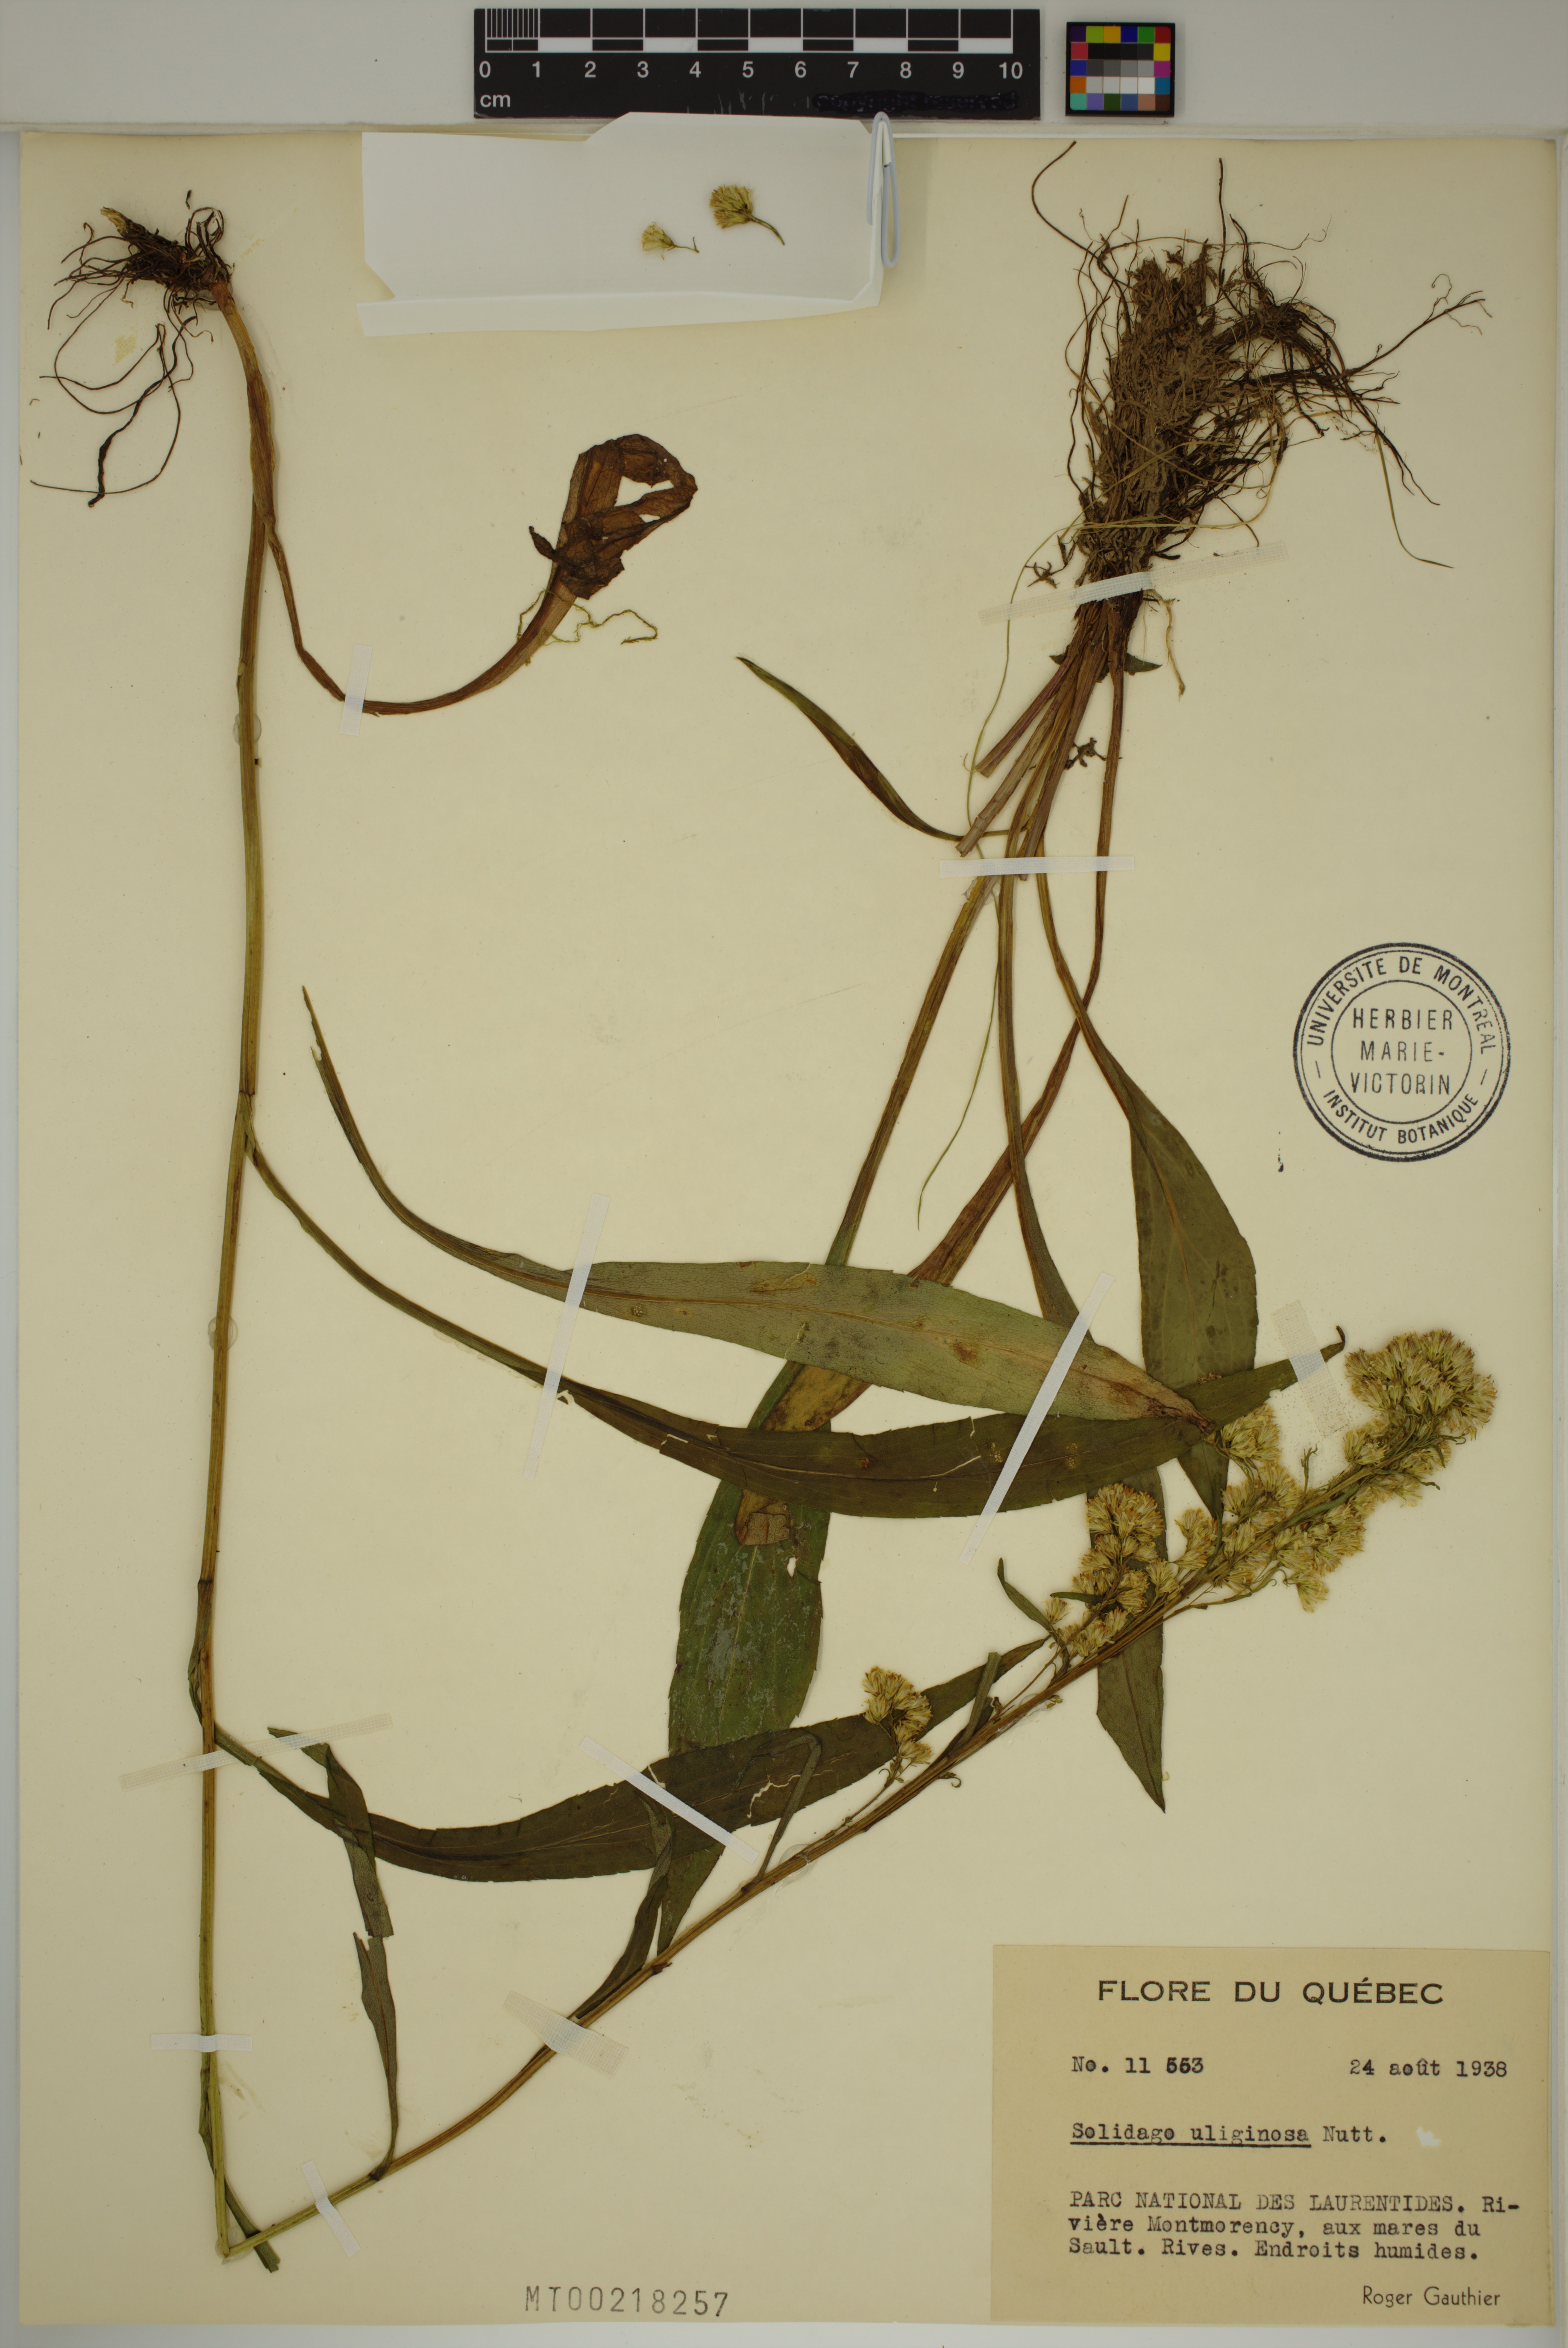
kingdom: Plantae
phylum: Tracheophyta
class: Magnoliopsida
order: Asterales
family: Asteraceae
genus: Solidago
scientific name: Solidago uliginosa
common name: Bog goldenrod
